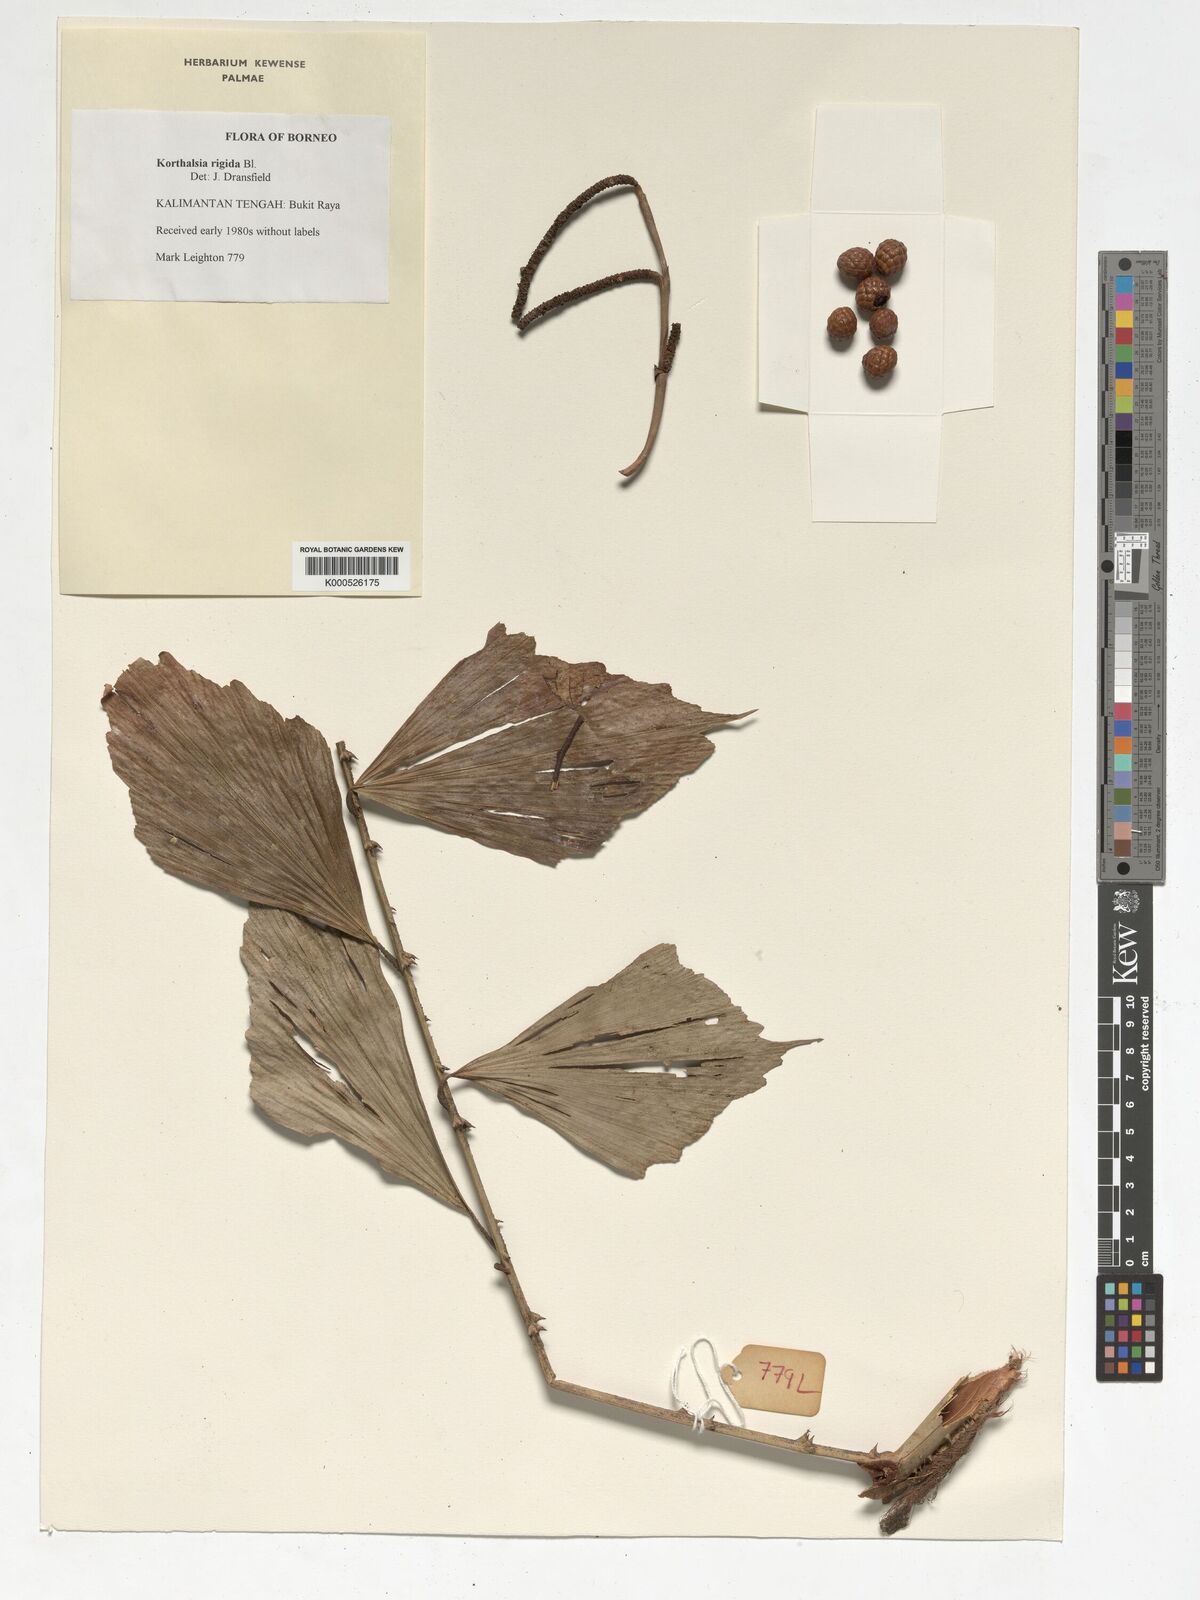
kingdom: Plantae
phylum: Tracheophyta
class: Liliopsida
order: Arecales
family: Arecaceae
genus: Korthalsia
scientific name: Korthalsia rigida
